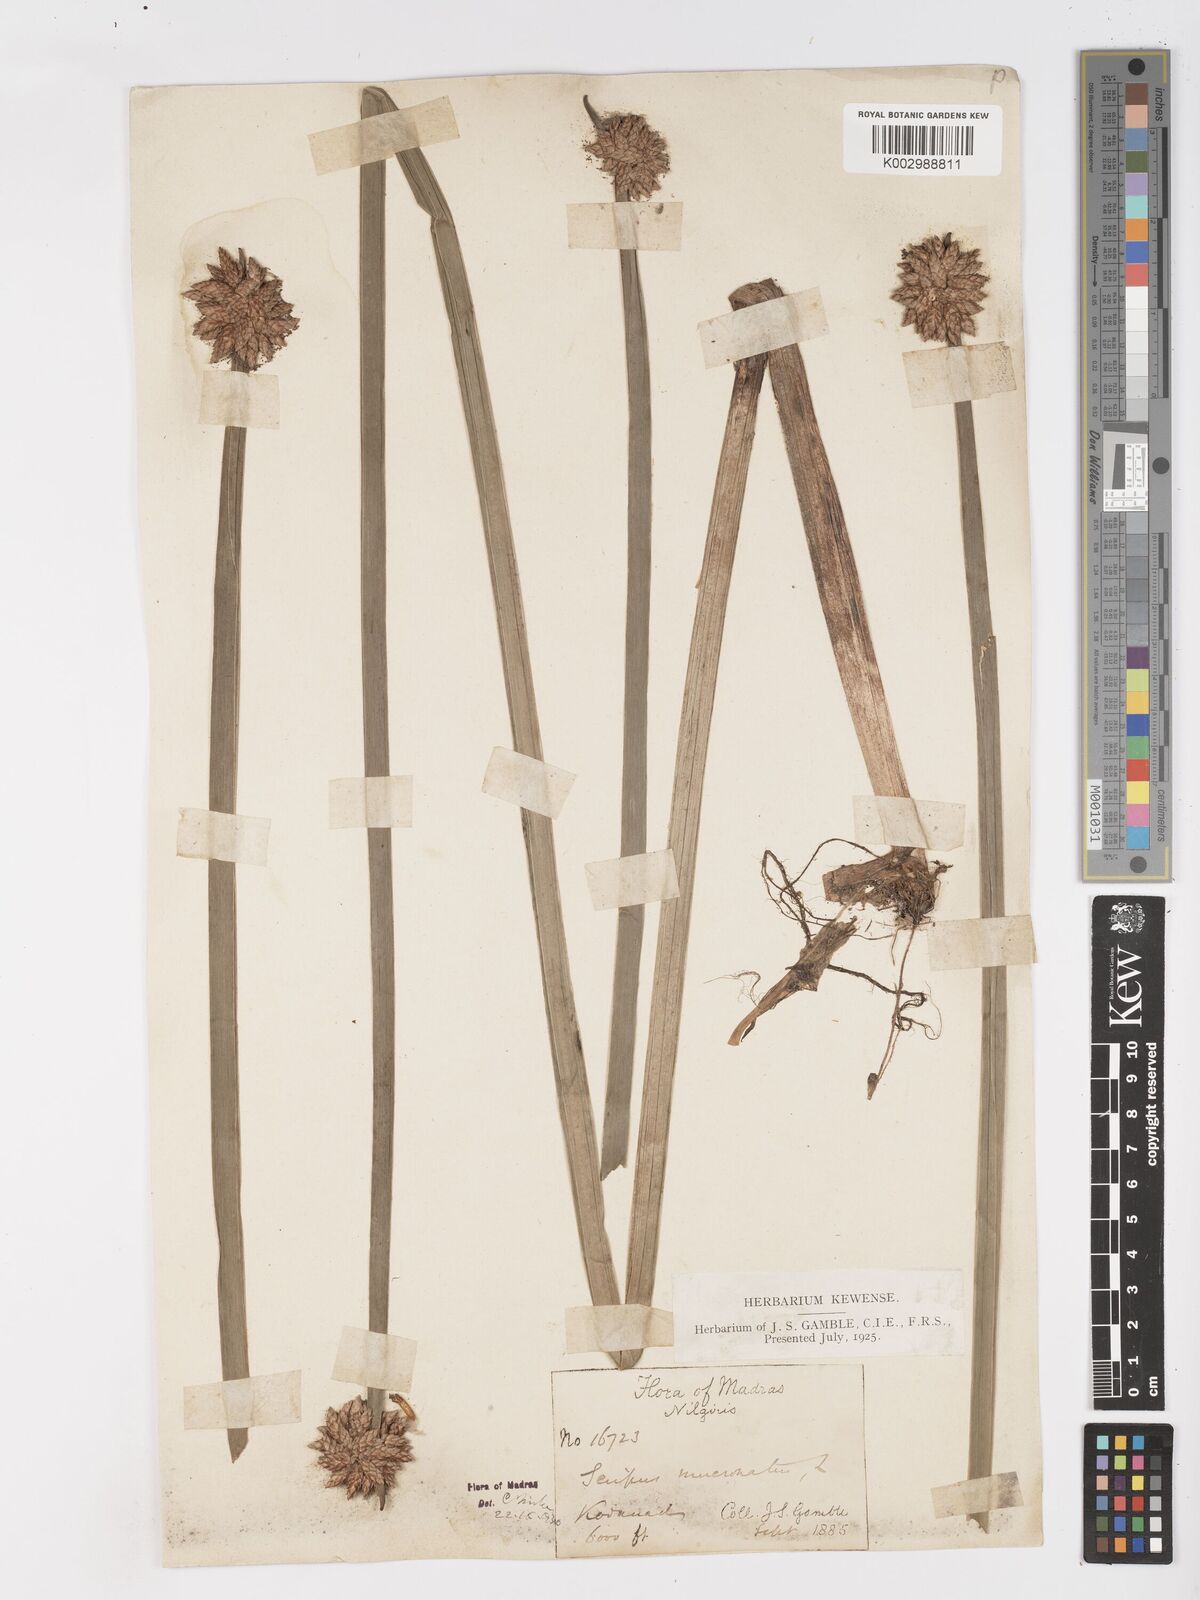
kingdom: Plantae
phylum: Tracheophyta
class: Liliopsida
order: Poales
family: Cyperaceae
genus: Schoenoplectiella
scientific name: Schoenoplectiella mucronata
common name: Bog bulrush
